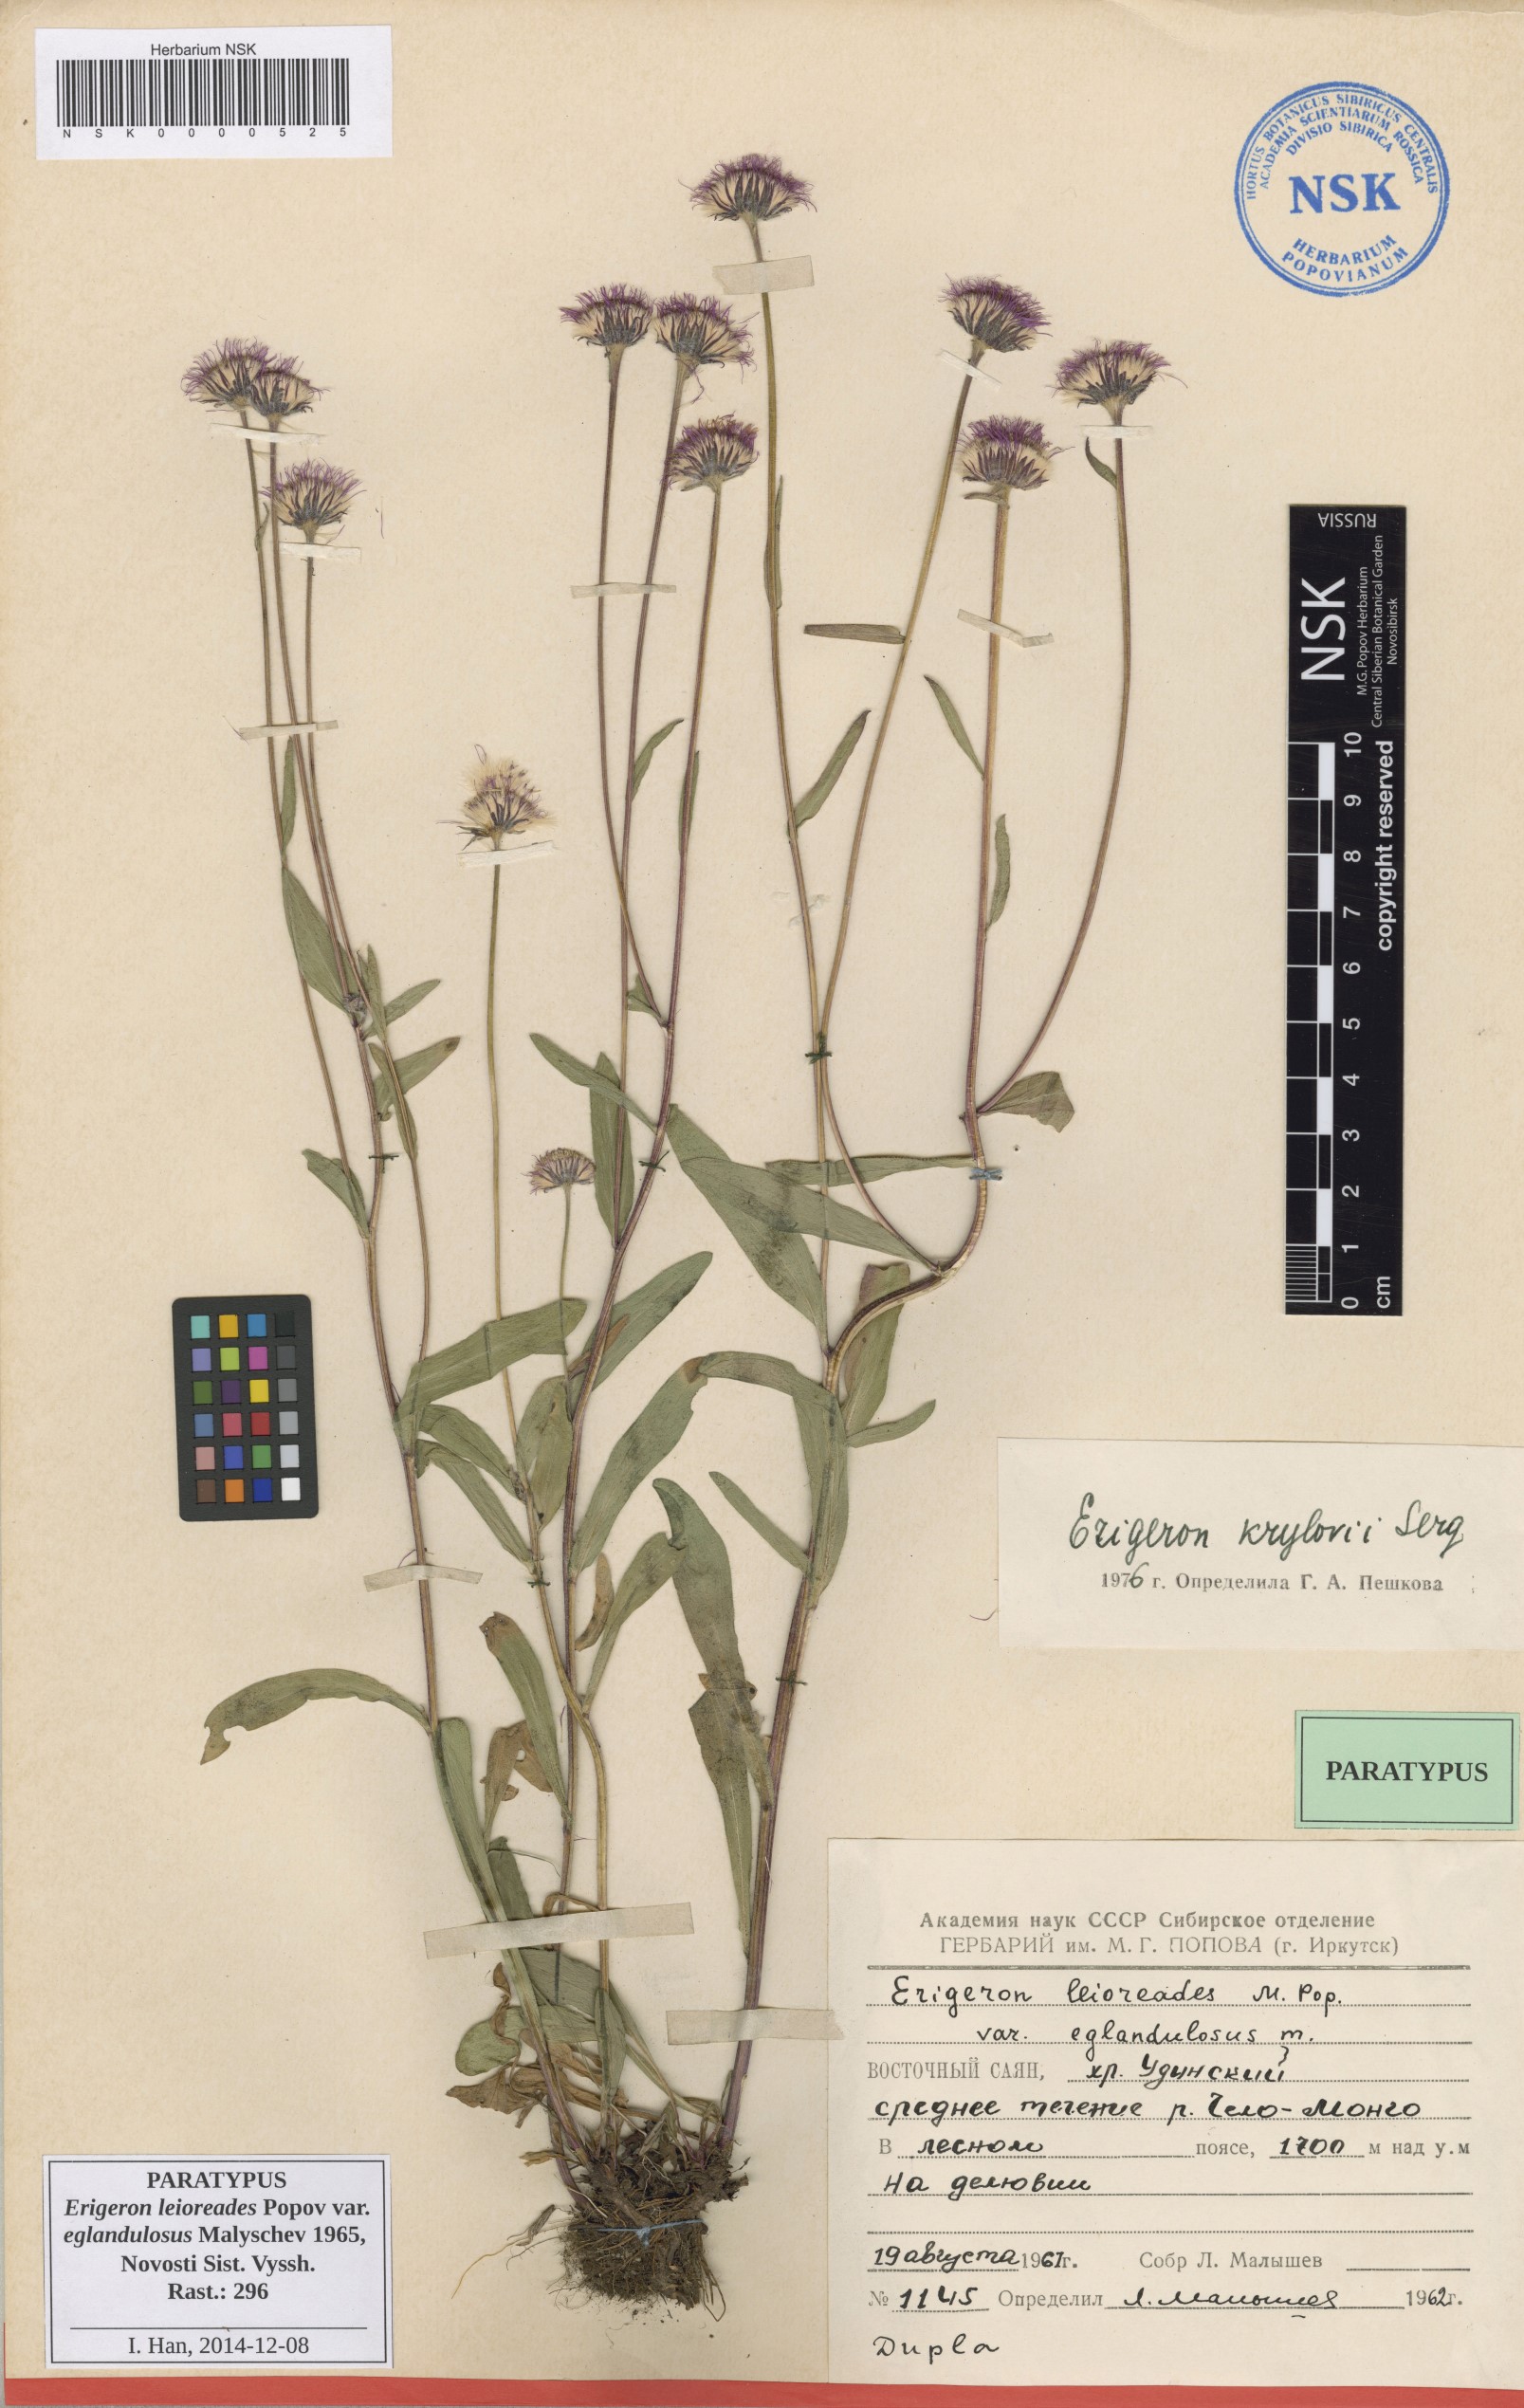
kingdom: Plantae
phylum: Tracheophyta
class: Magnoliopsida
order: Asterales
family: Asteraceae
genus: Erigeron
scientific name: Erigeron leioreades
